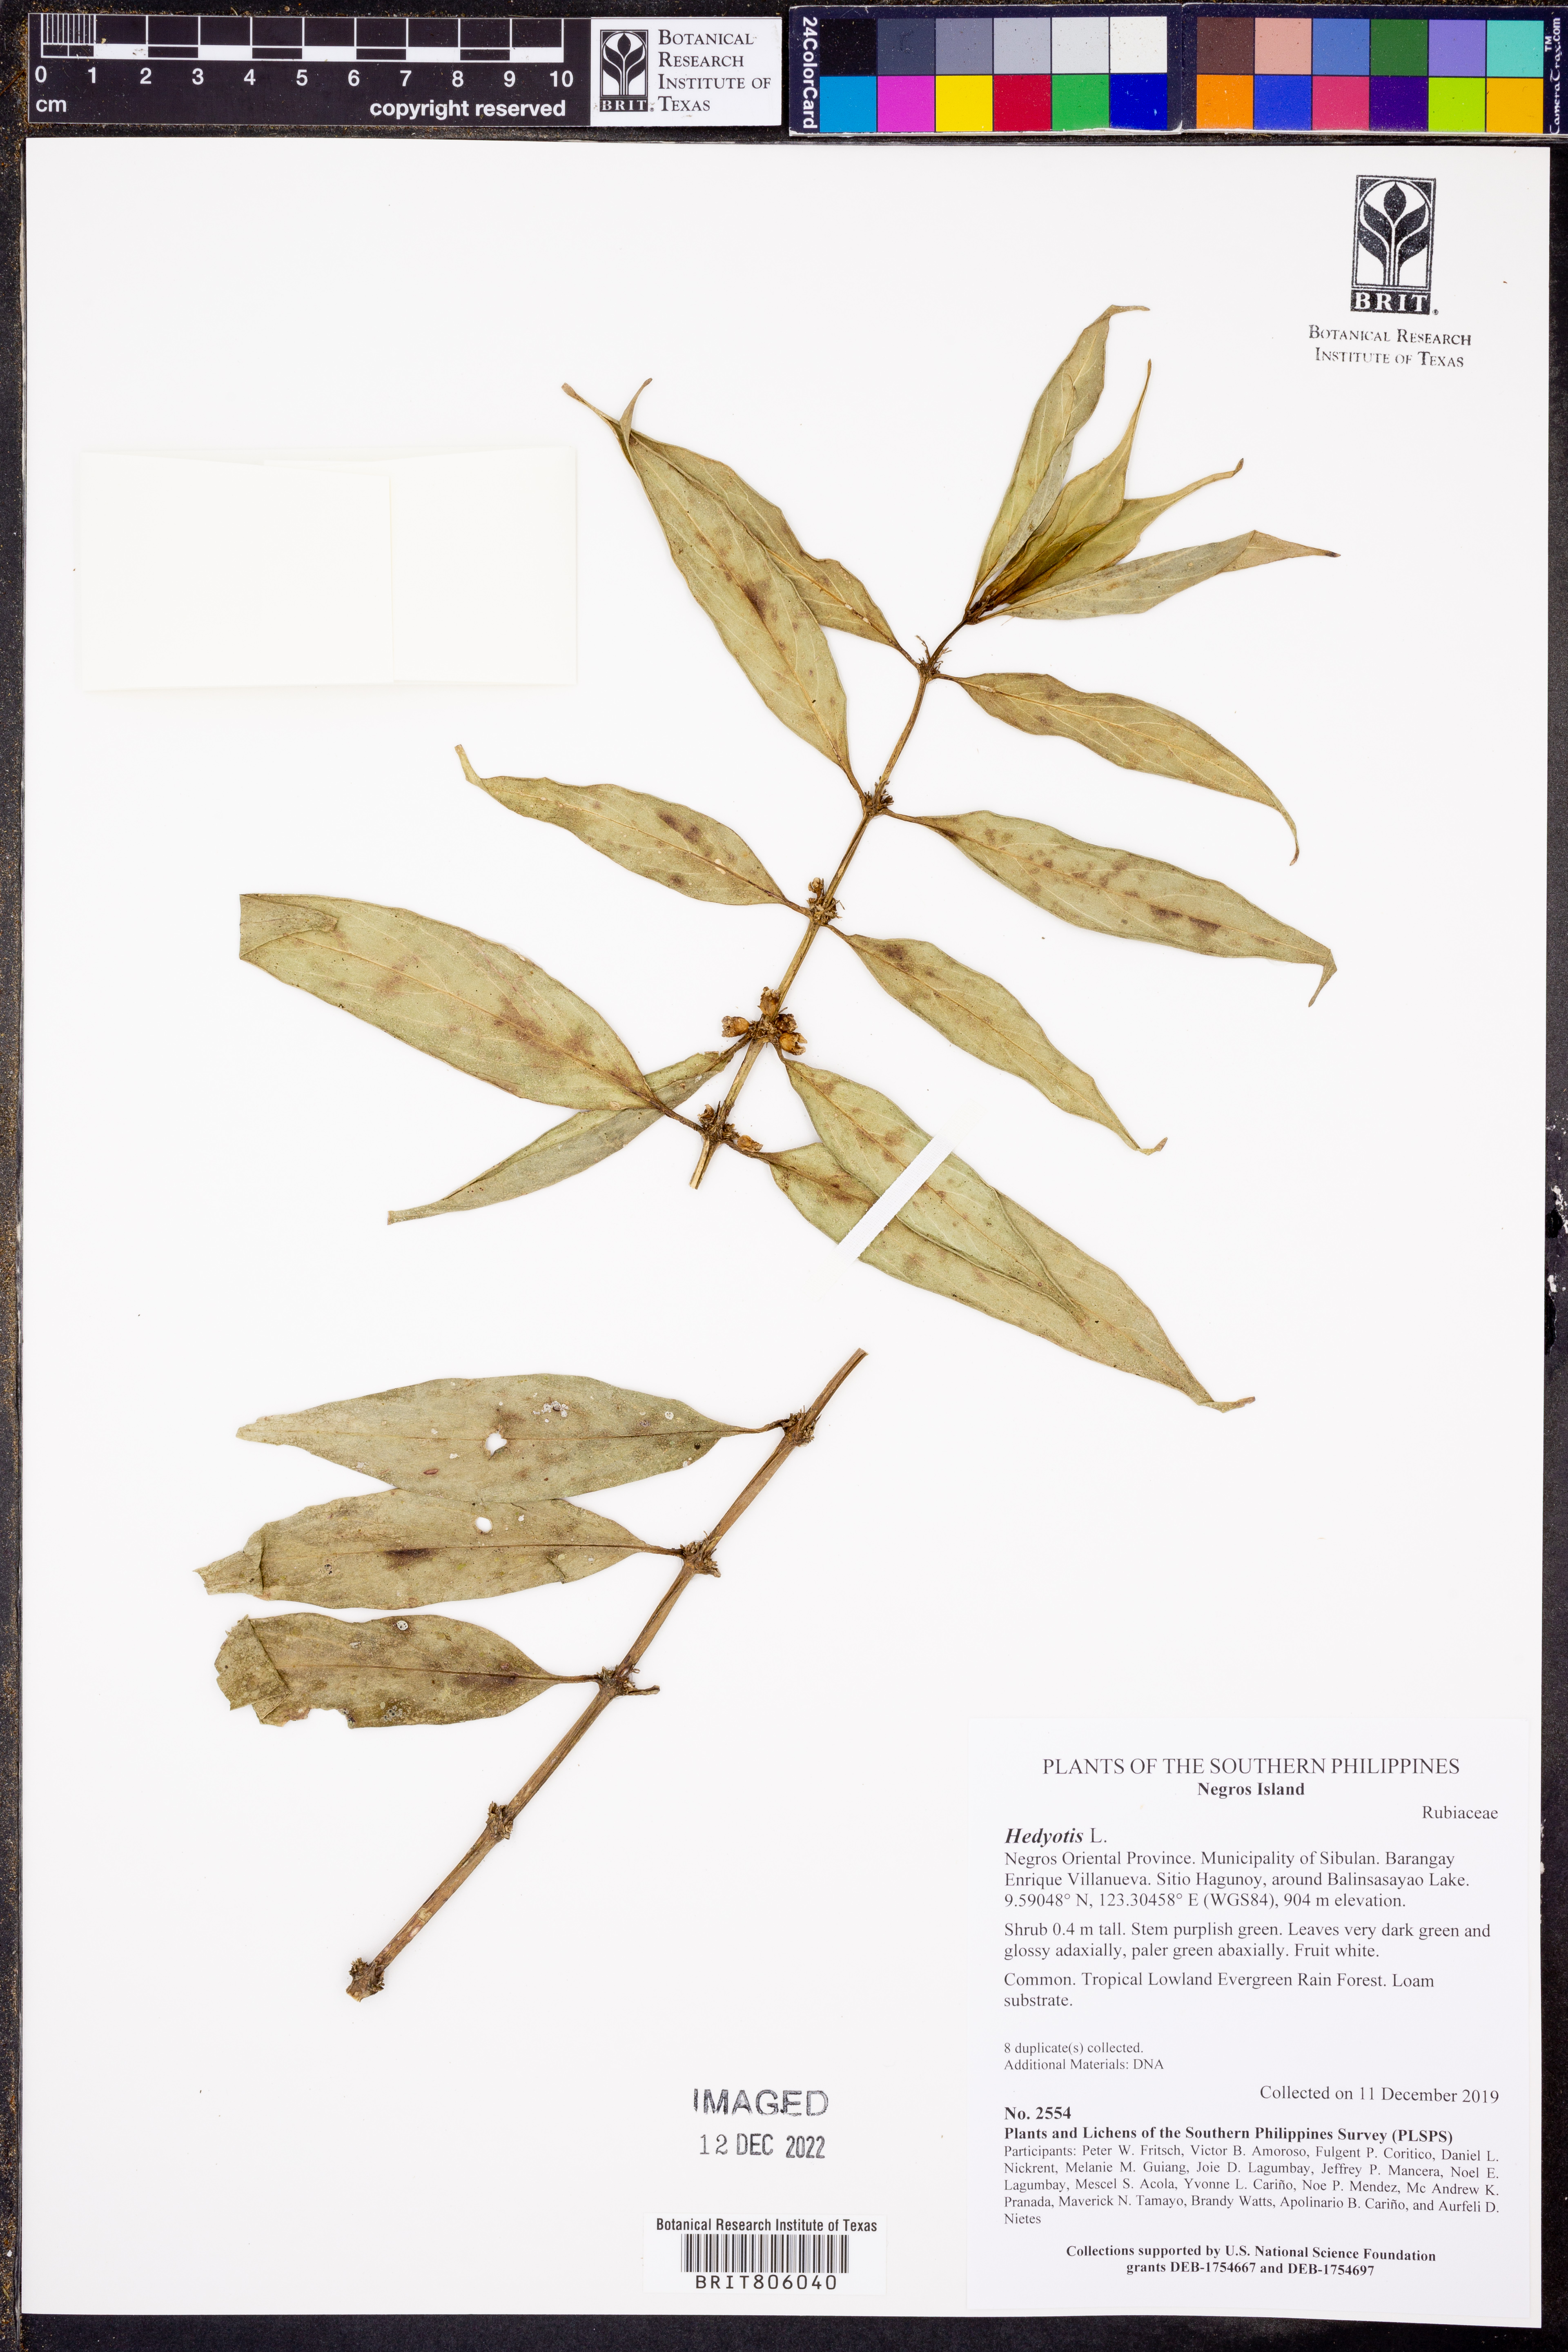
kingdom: Plantae
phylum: Tracheophyta
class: Magnoliopsida
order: Gentianales
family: Rubiaceae
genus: Hedyotis
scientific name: Hedyotis
